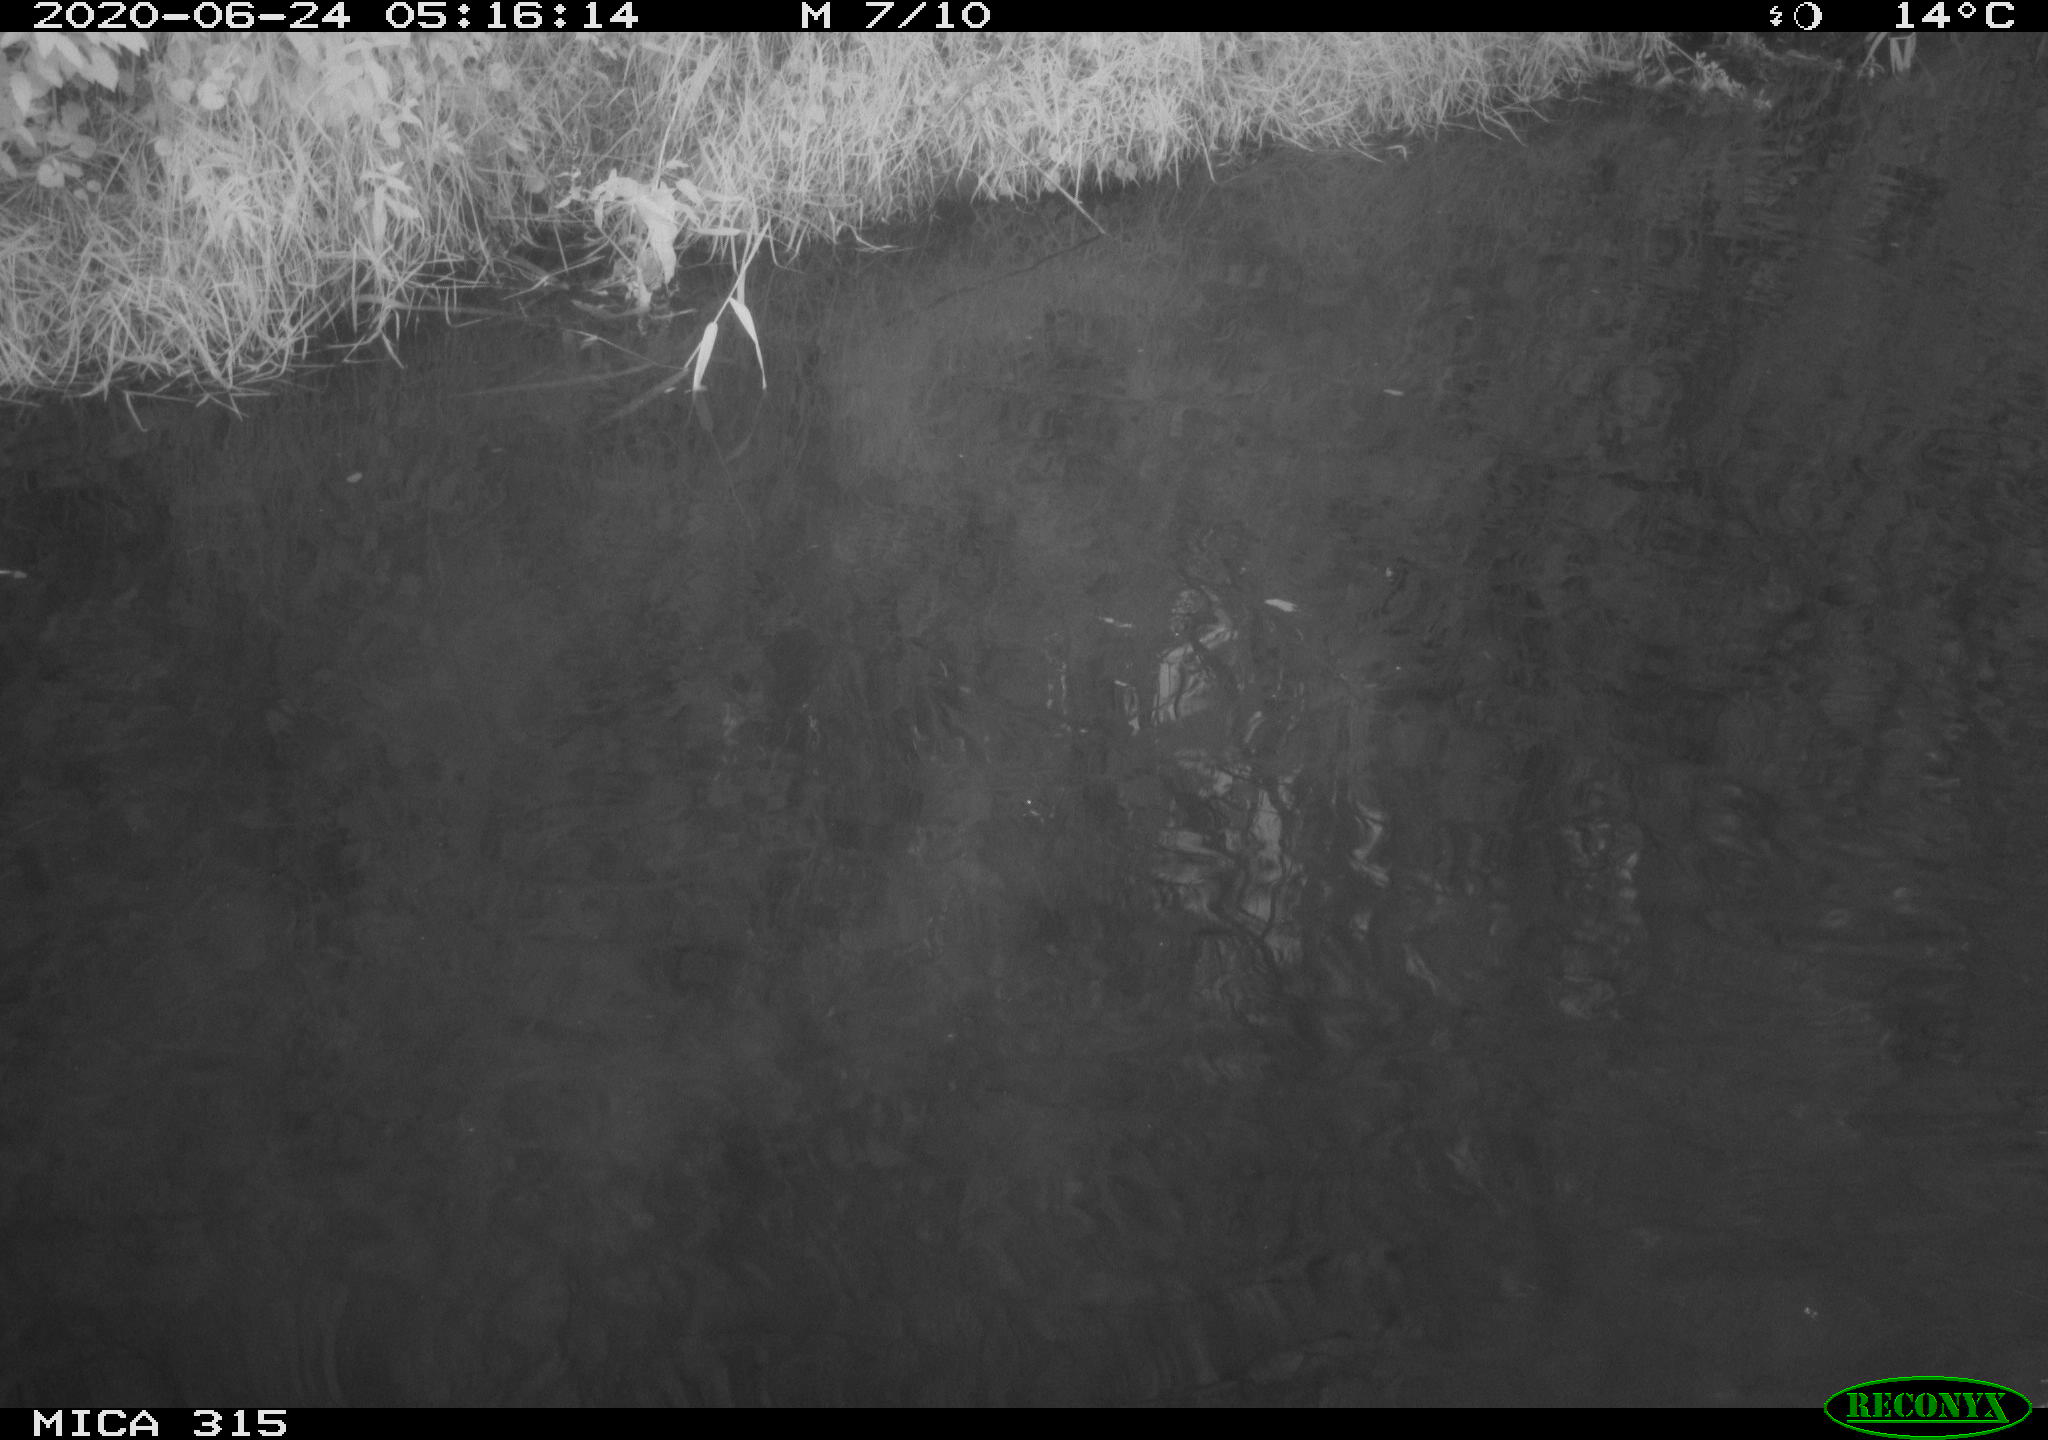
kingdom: Animalia
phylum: Chordata
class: Aves
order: Anseriformes
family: Anatidae
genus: Anas
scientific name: Anas platyrhynchos
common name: Mallard
